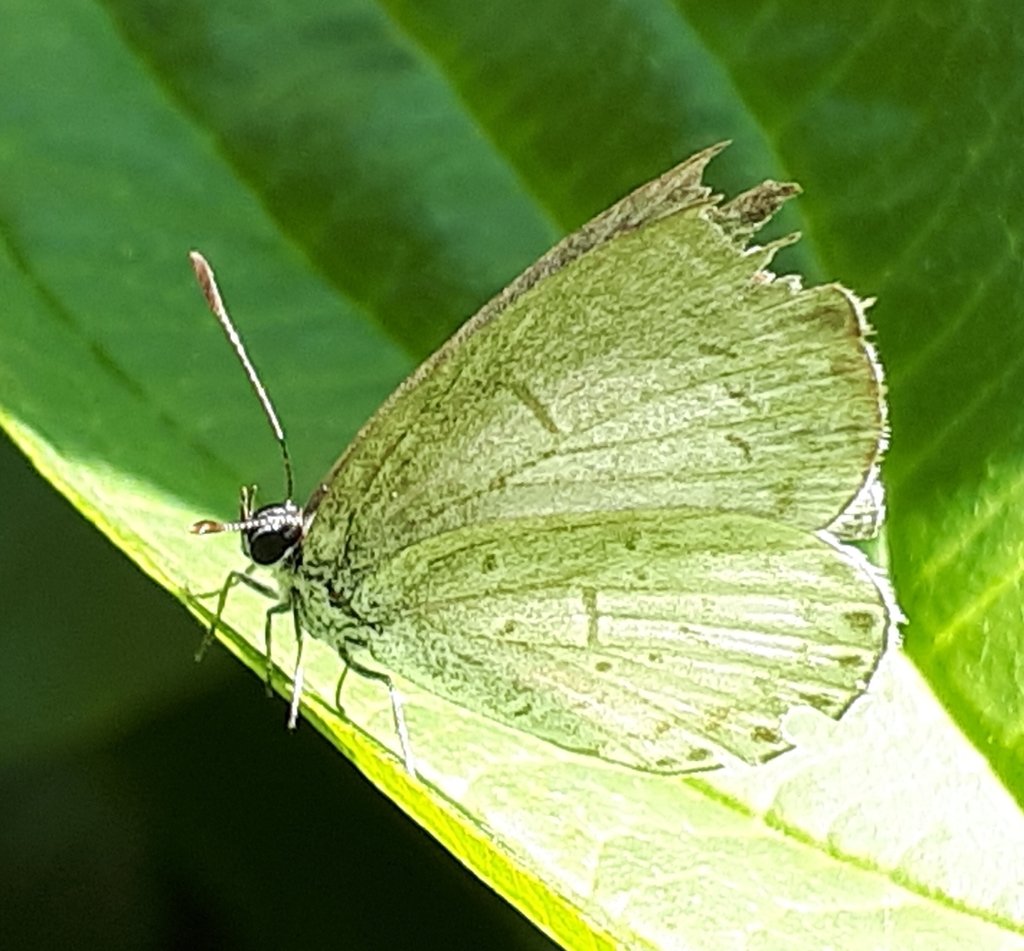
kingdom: Animalia
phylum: Arthropoda
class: Insecta
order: Lepidoptera
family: Lycaenidae
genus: Celastrina
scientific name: Celastrina
